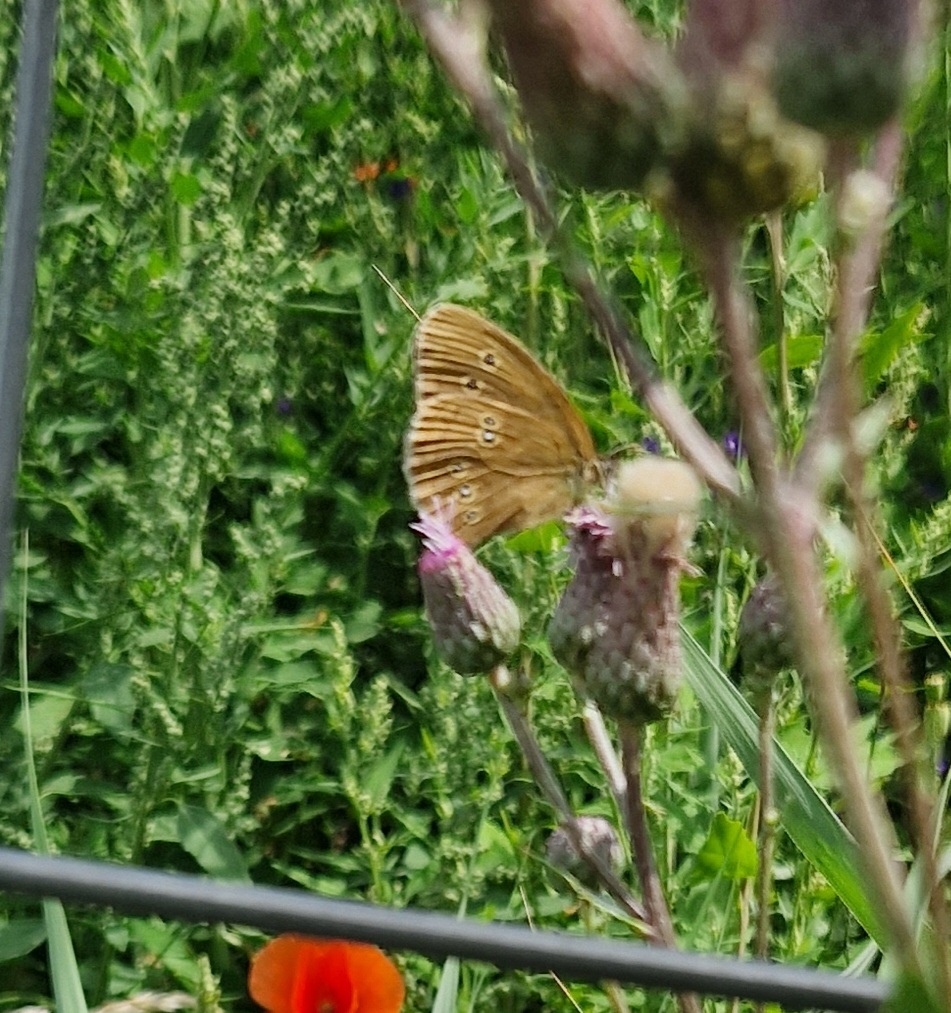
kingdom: Animalia
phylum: Arthropoda
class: Insecta
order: Lepidoptera
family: Nymphalidae
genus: Aphantopus
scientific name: Aphantopus hyperantus
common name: Engrandøje
